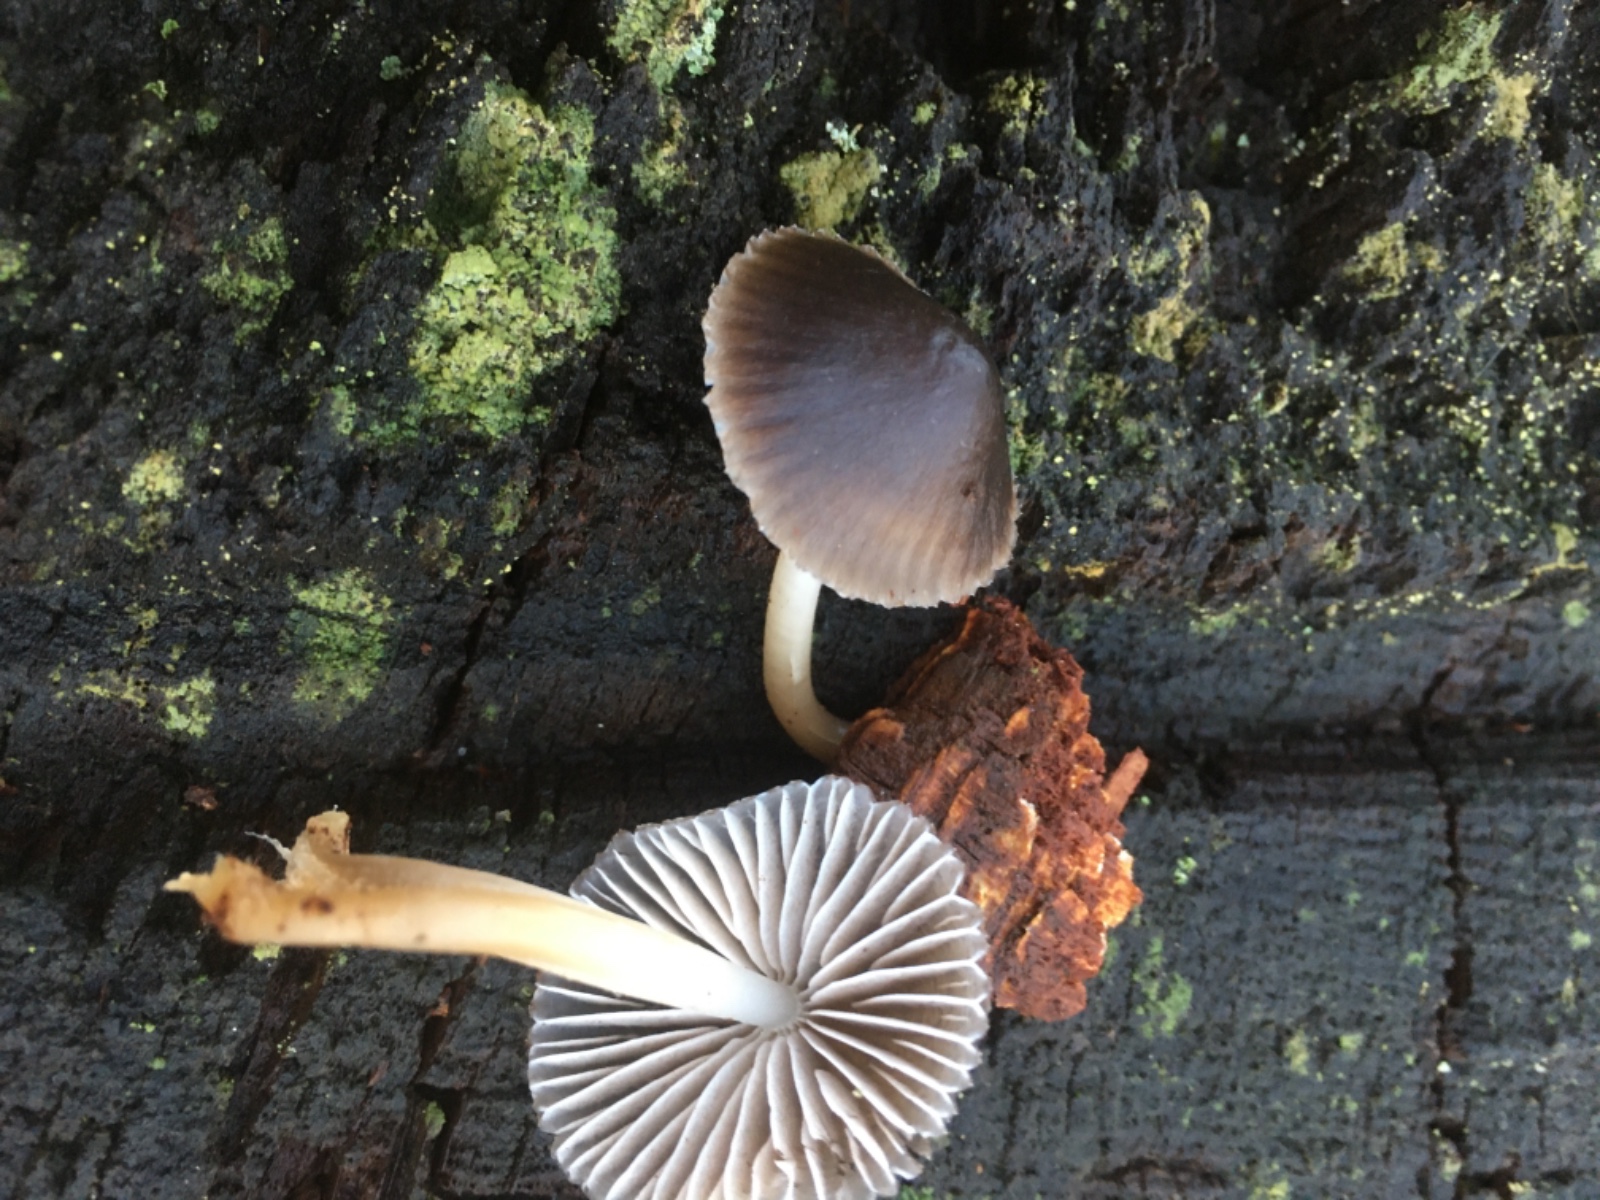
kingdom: Fungi
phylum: Basidiomycota
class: Agaricomycetes
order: Agaricales
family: Mycenaceae
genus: Mycena
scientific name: Mycena inclinata
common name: nikkende huesvamp
